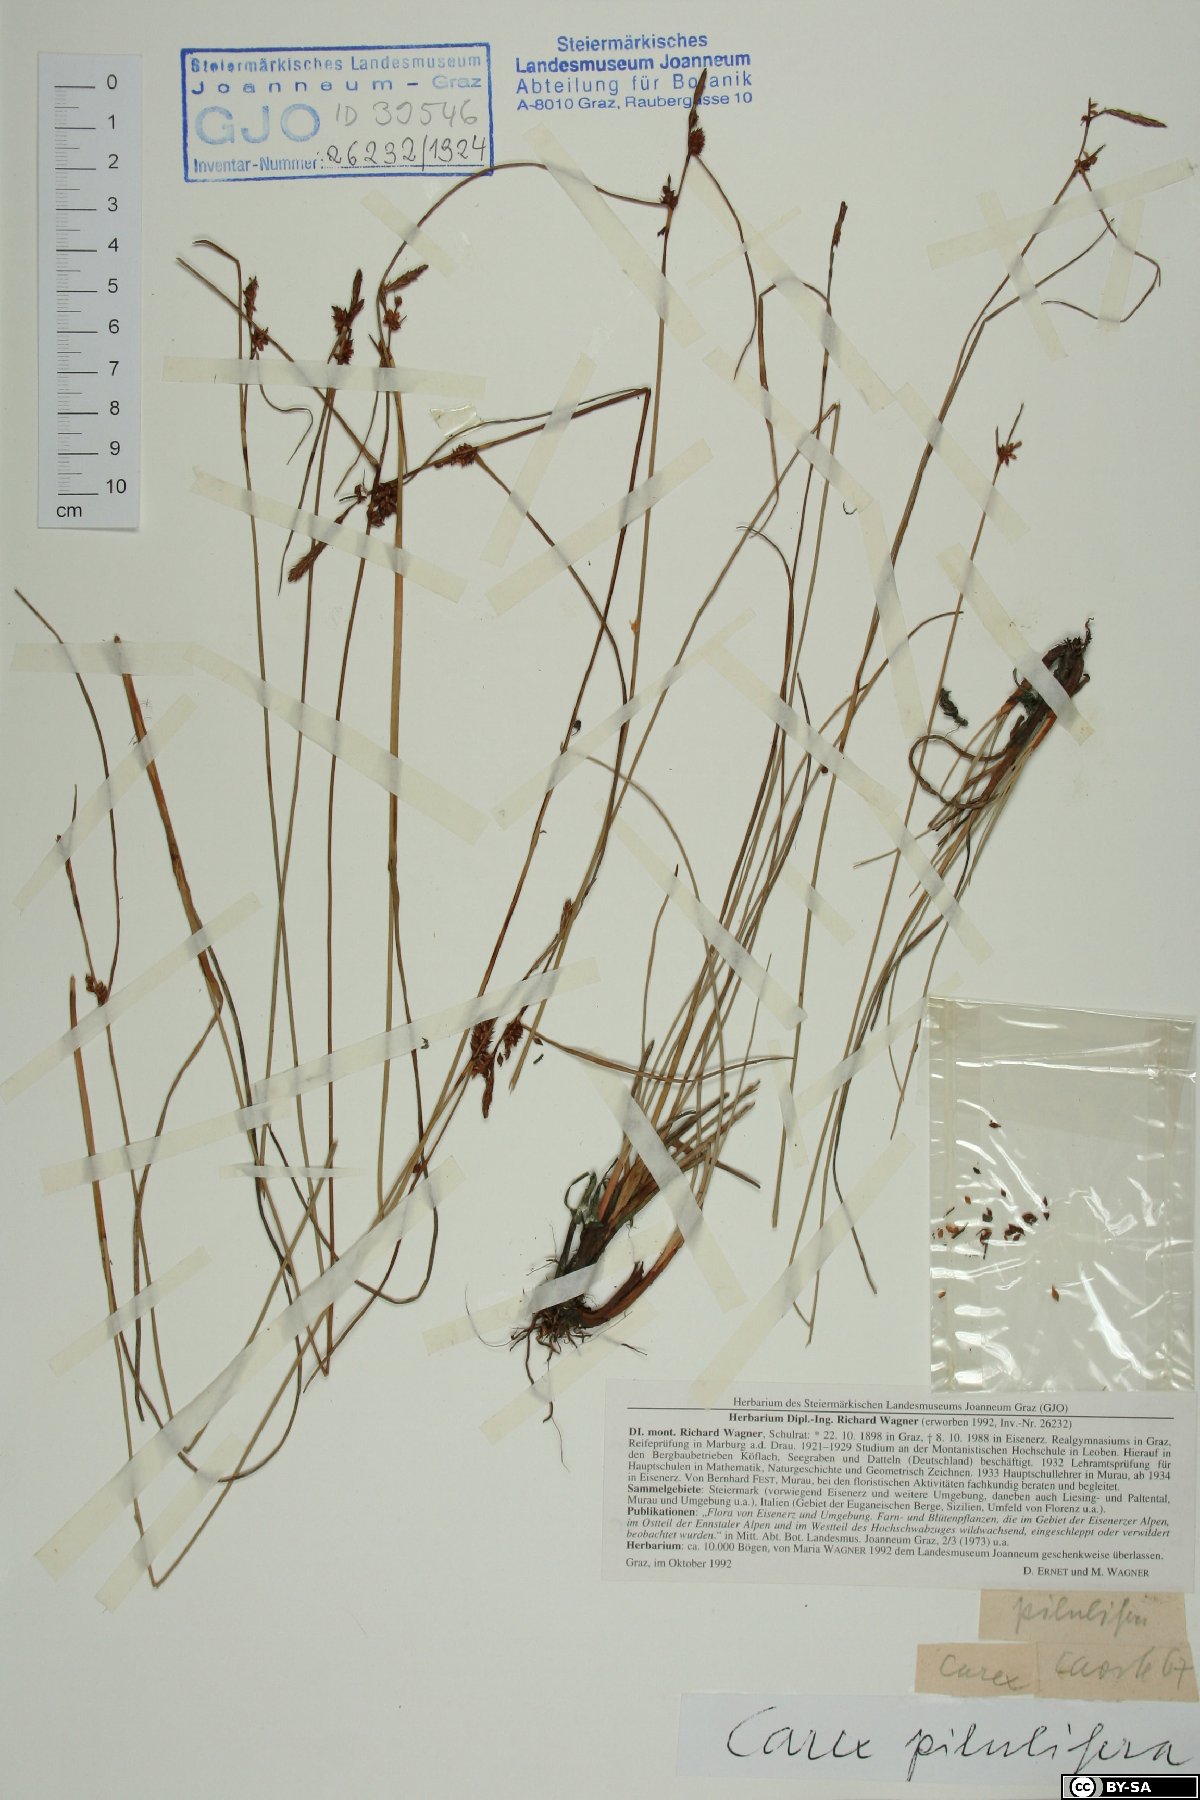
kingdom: Plantae
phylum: Tracheophyta
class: Liliopsida
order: Poales
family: Cyperaceae
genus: Carex
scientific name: Carex pilulifera
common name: Pill sedge
